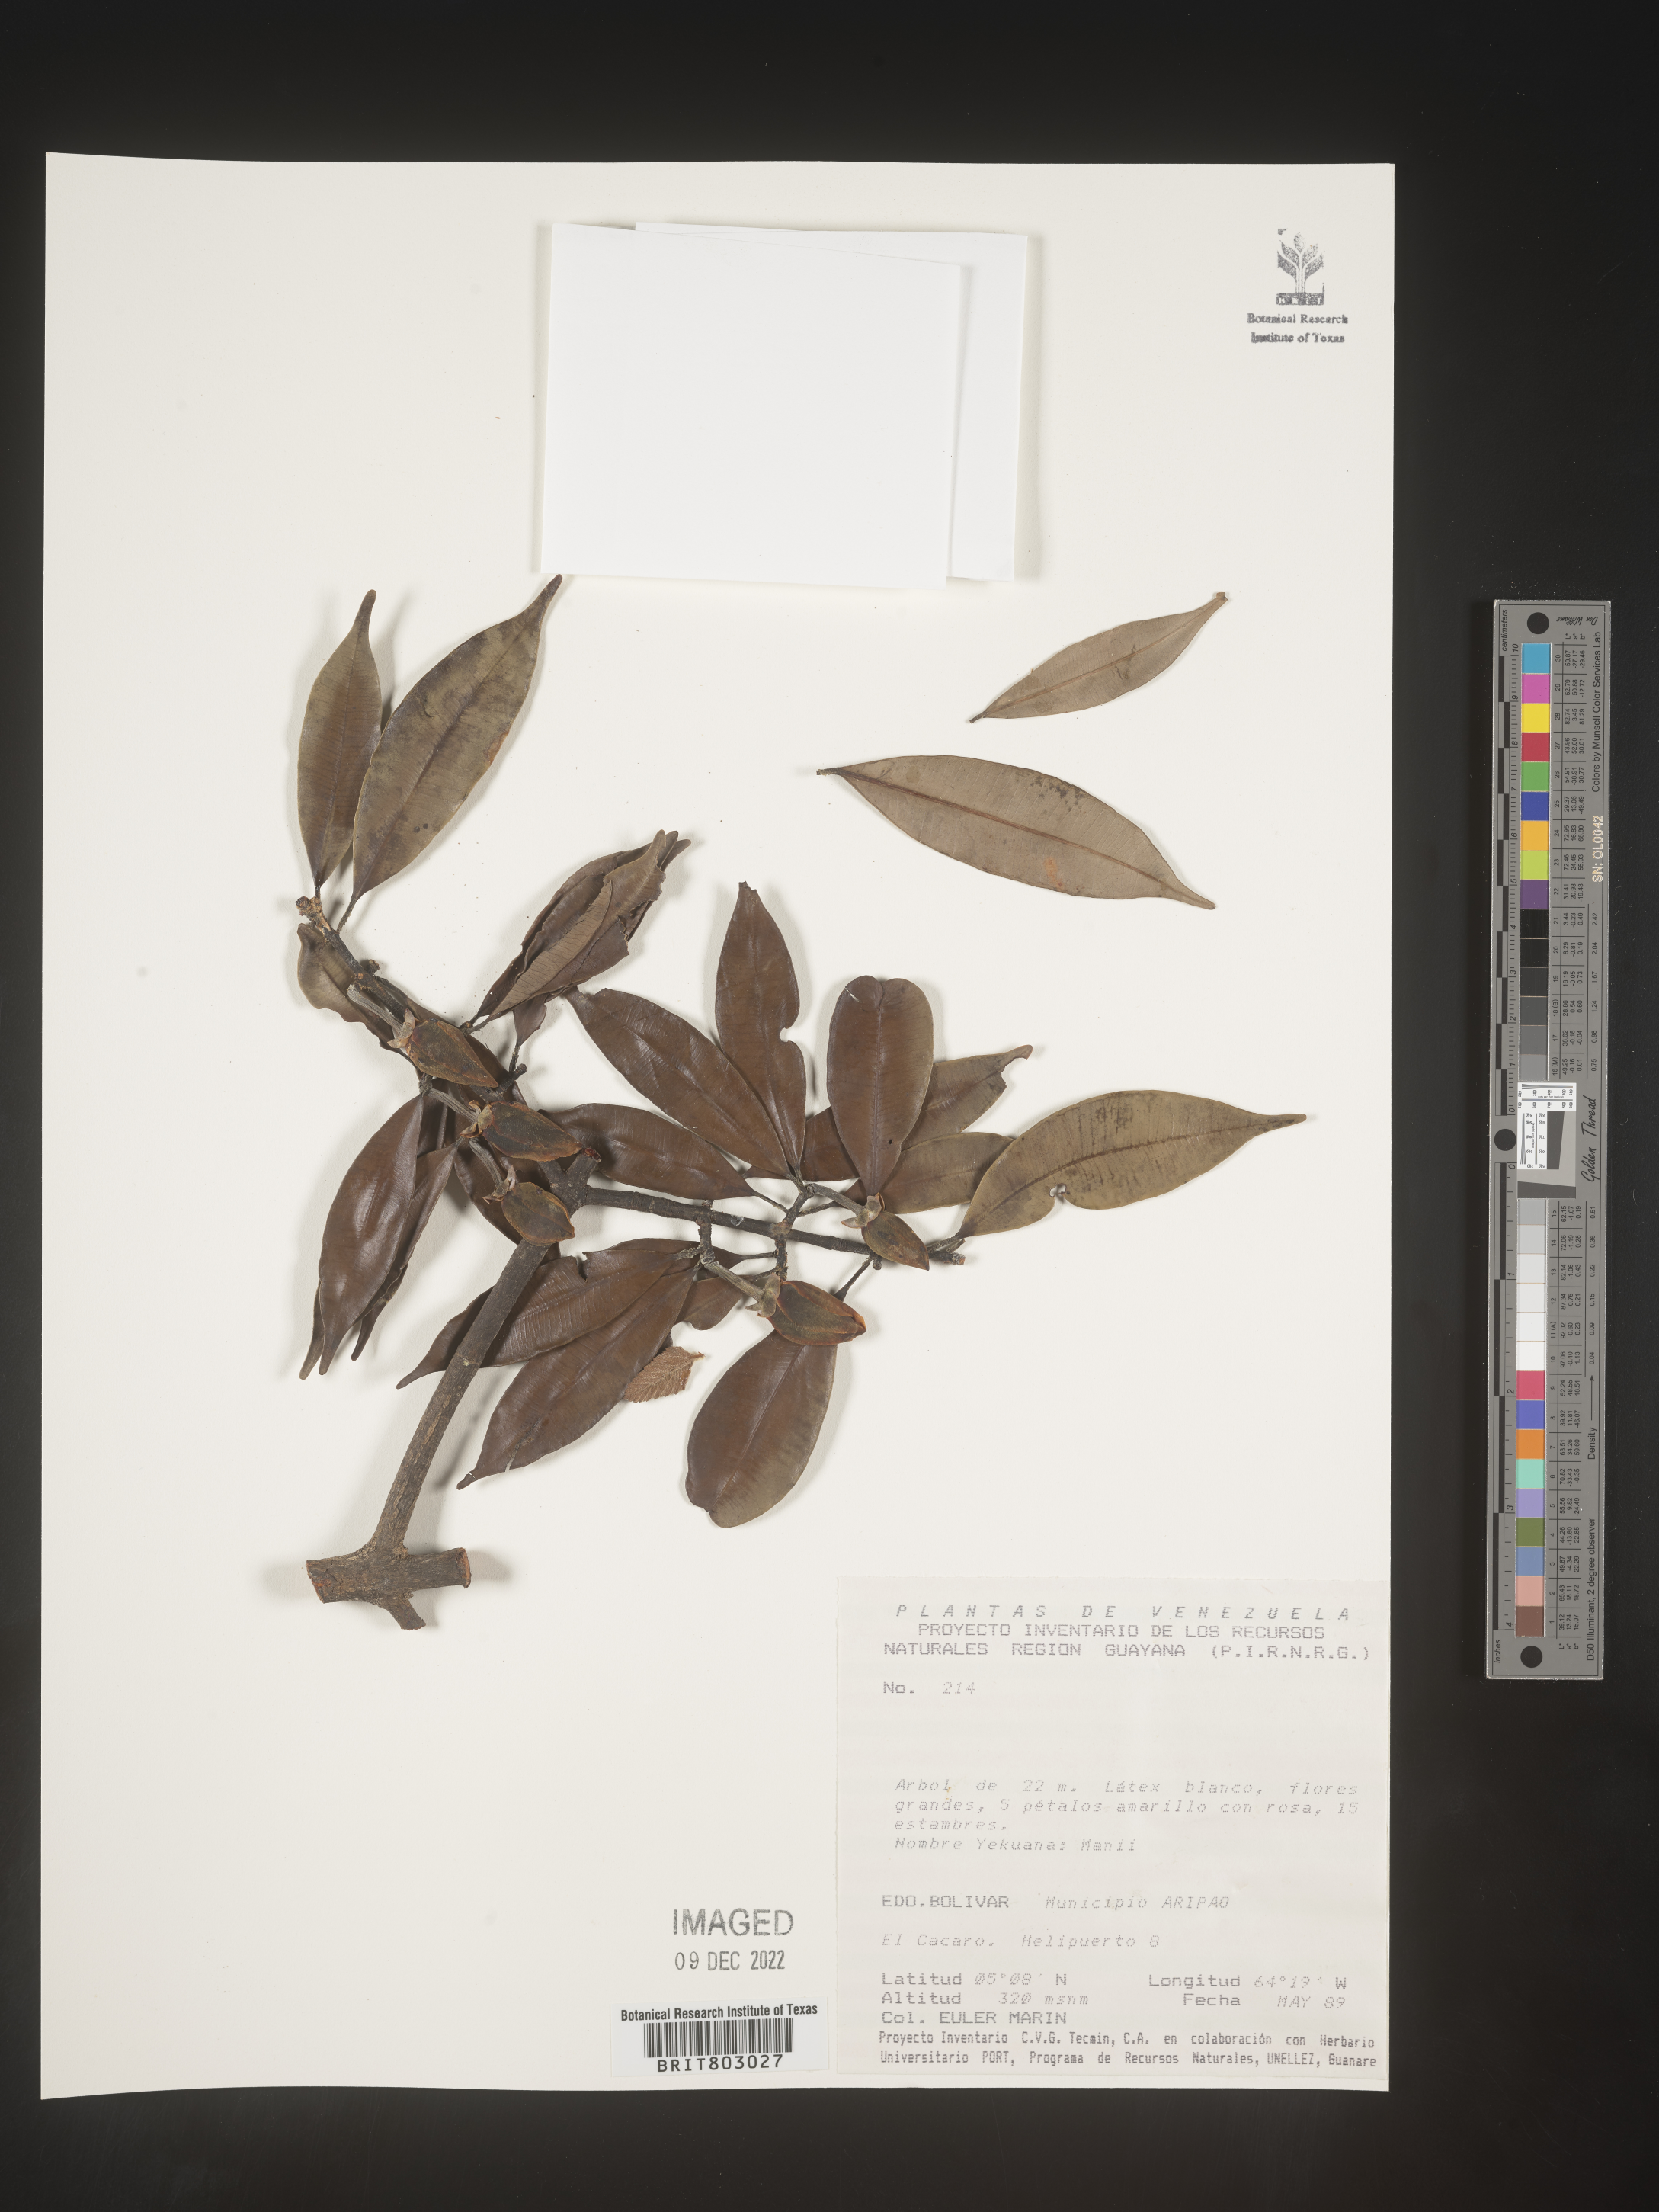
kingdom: Plantae
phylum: Tracheophyta
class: Magnoliopsida
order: Malpighiales
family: Clusiaceae
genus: Moronobea
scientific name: Moronobea
